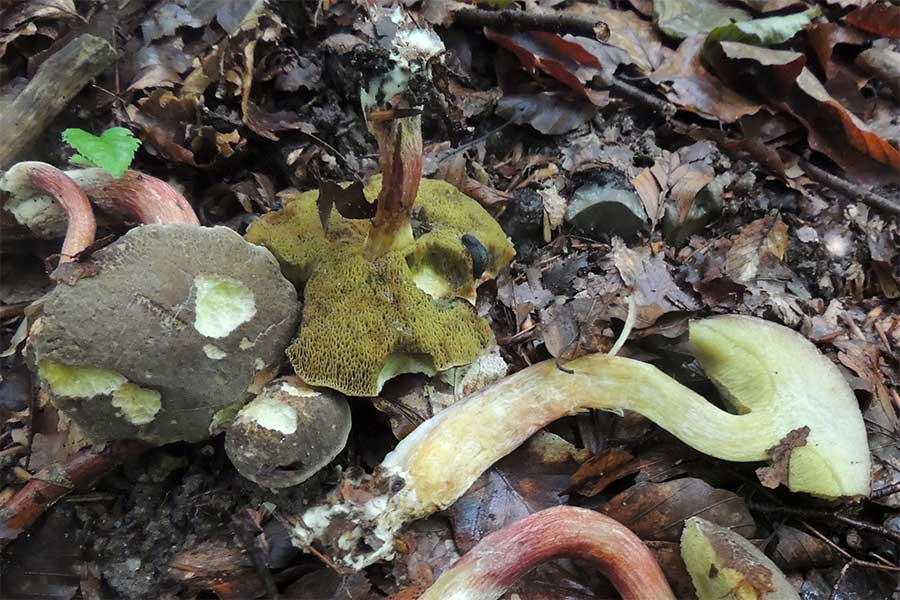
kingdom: Fungi
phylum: Basidiomycota
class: Agaricomycetes
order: Boletales
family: Boletaceae
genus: Xerocomellus
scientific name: Xerocomellus chrysenteron
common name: rødsprukken rørhat
